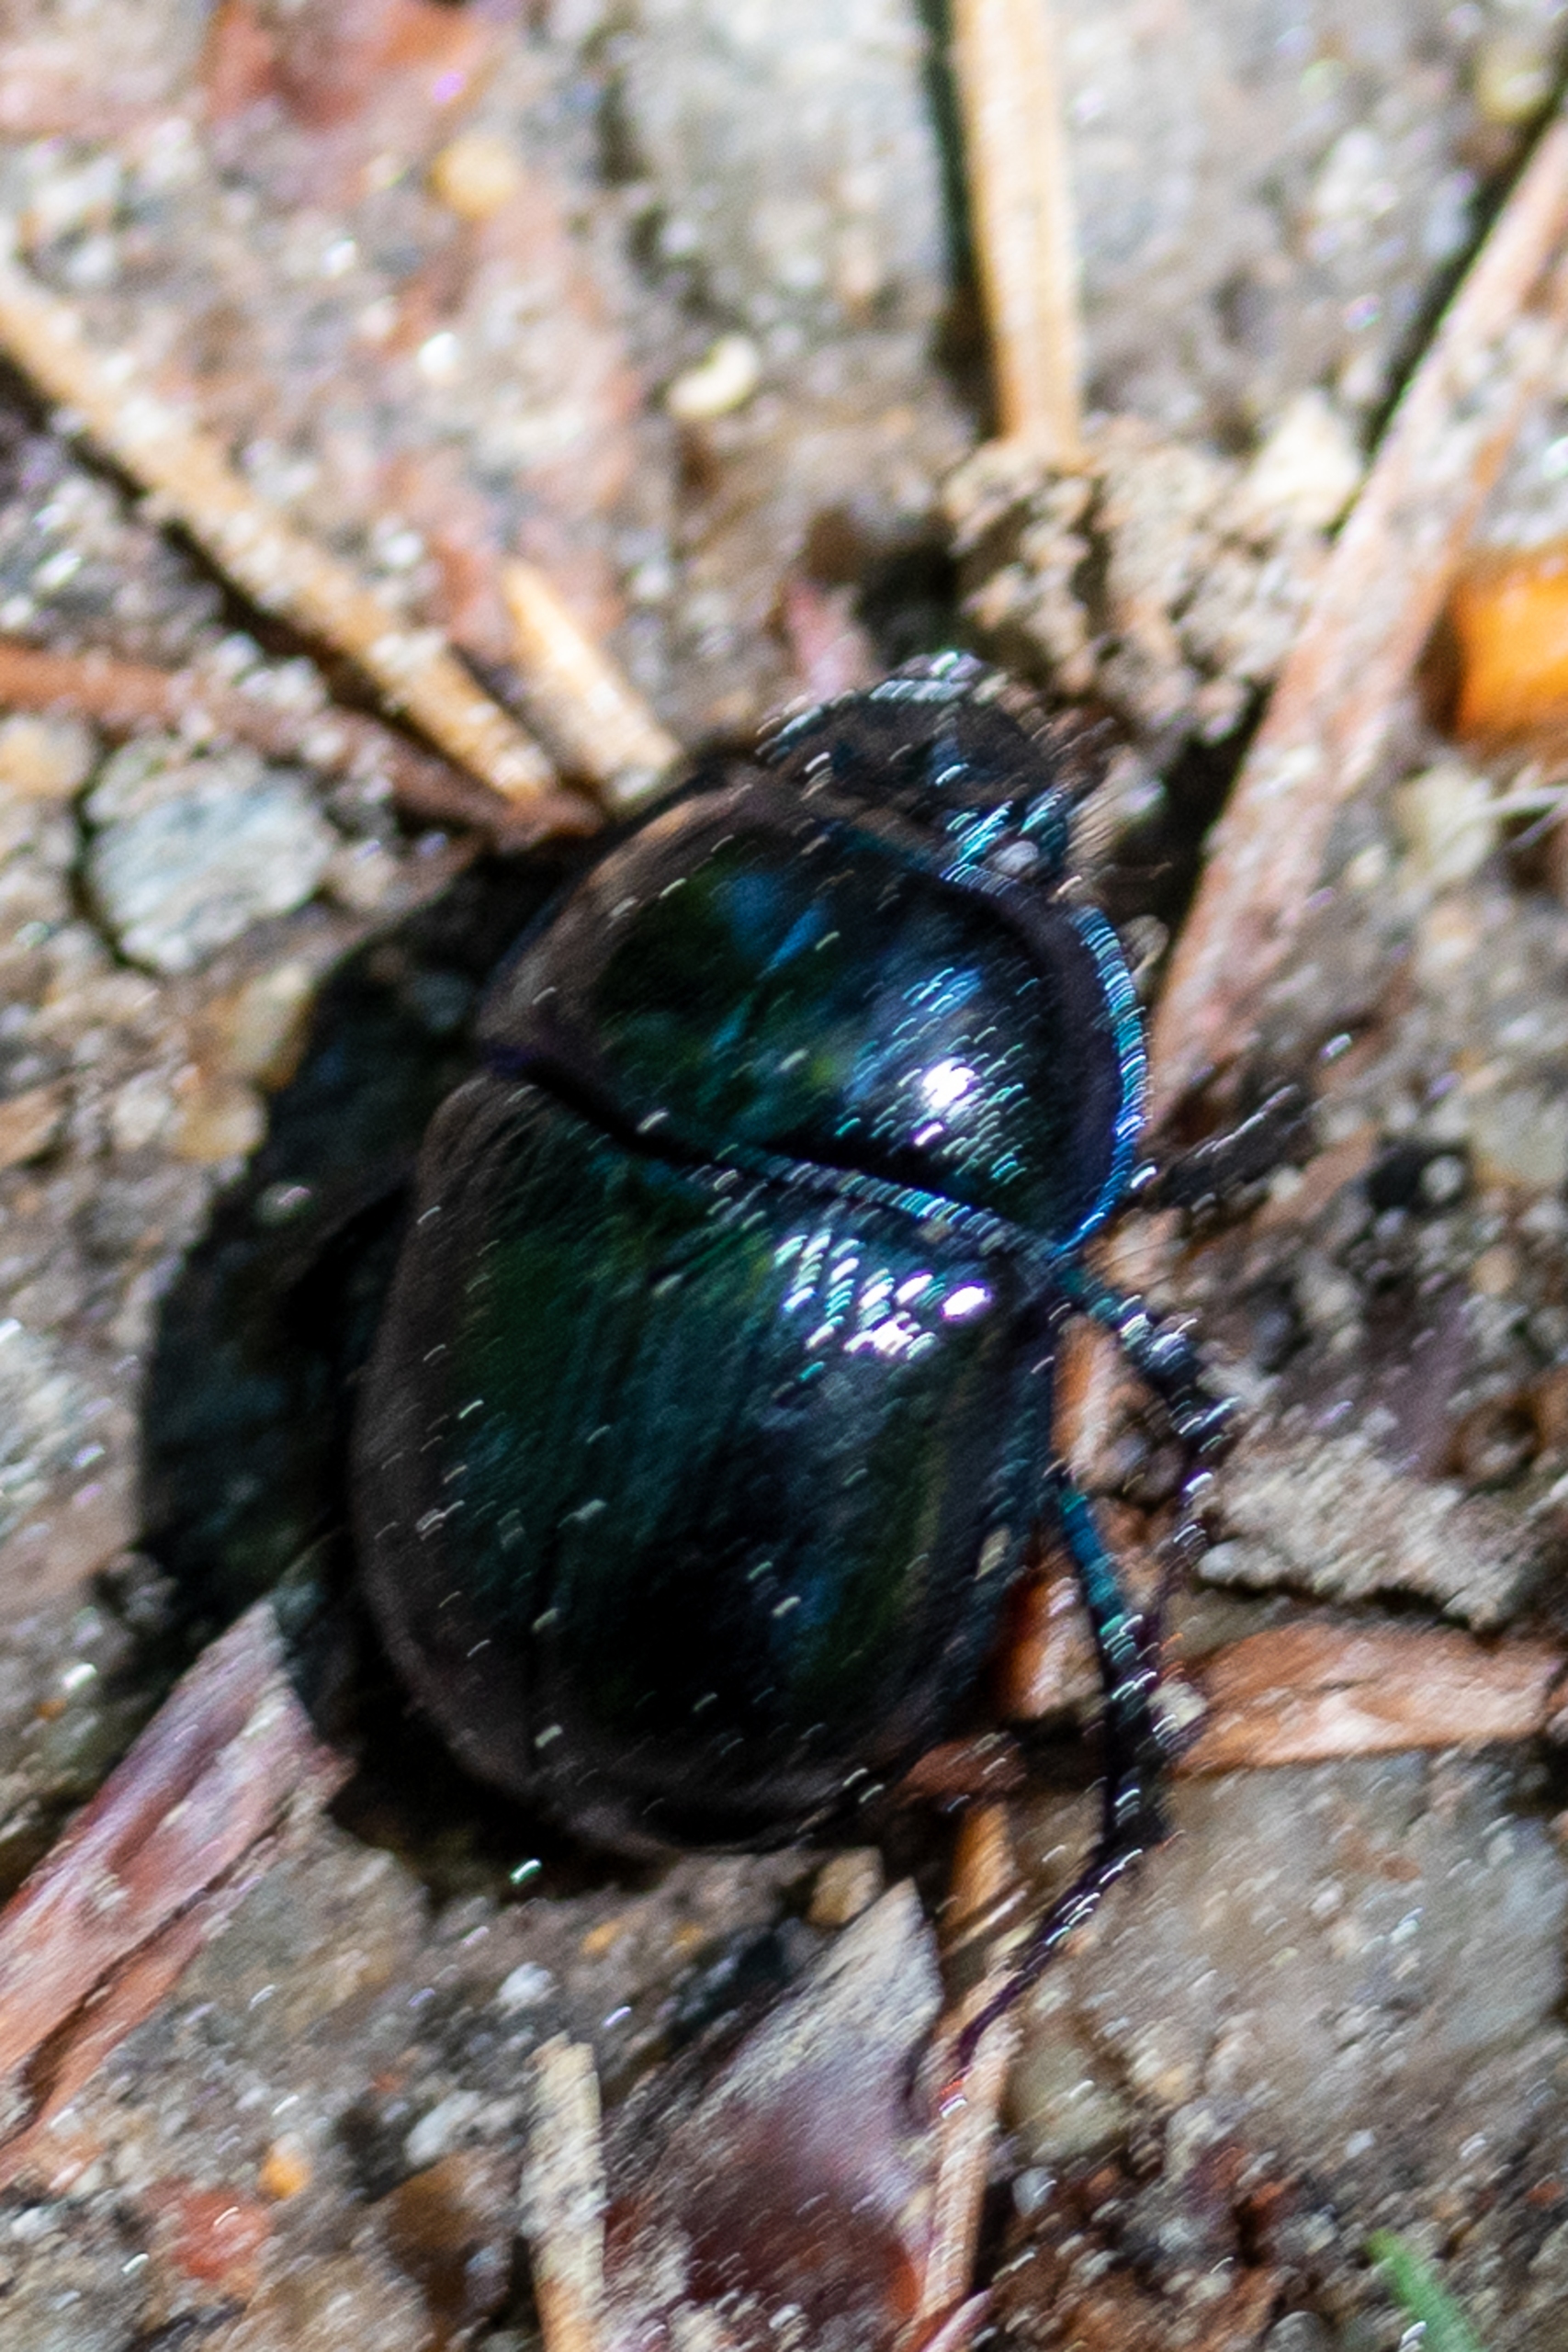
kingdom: Animalia
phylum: Arthropoda
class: Insecta
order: Coleoptera
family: Geotrupidae
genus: Anoplotrupes
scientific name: Anoplotrupes stercorosus
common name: Skovskarnbasse
